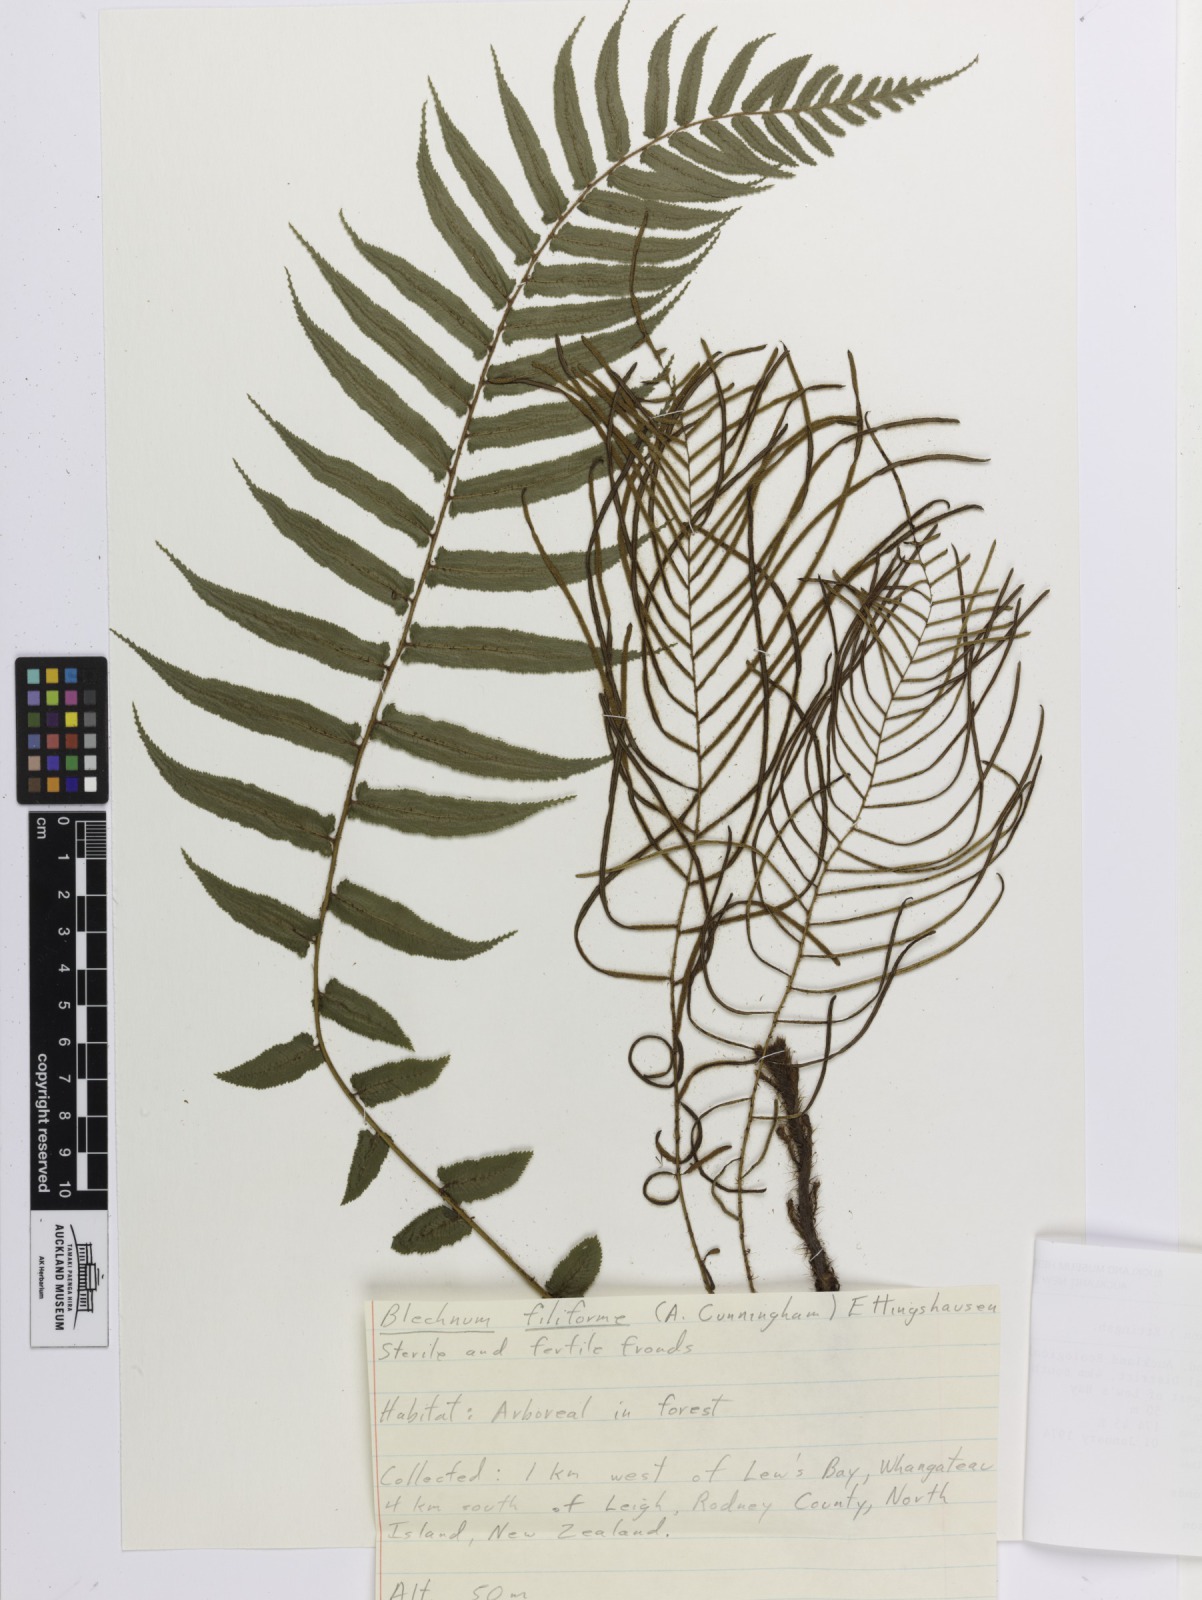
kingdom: Plantae
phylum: Tracheophyta
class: Polypodiopsida
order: Polypodiales
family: Blechnaceae
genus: Icarus
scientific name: Icarus filiformis
